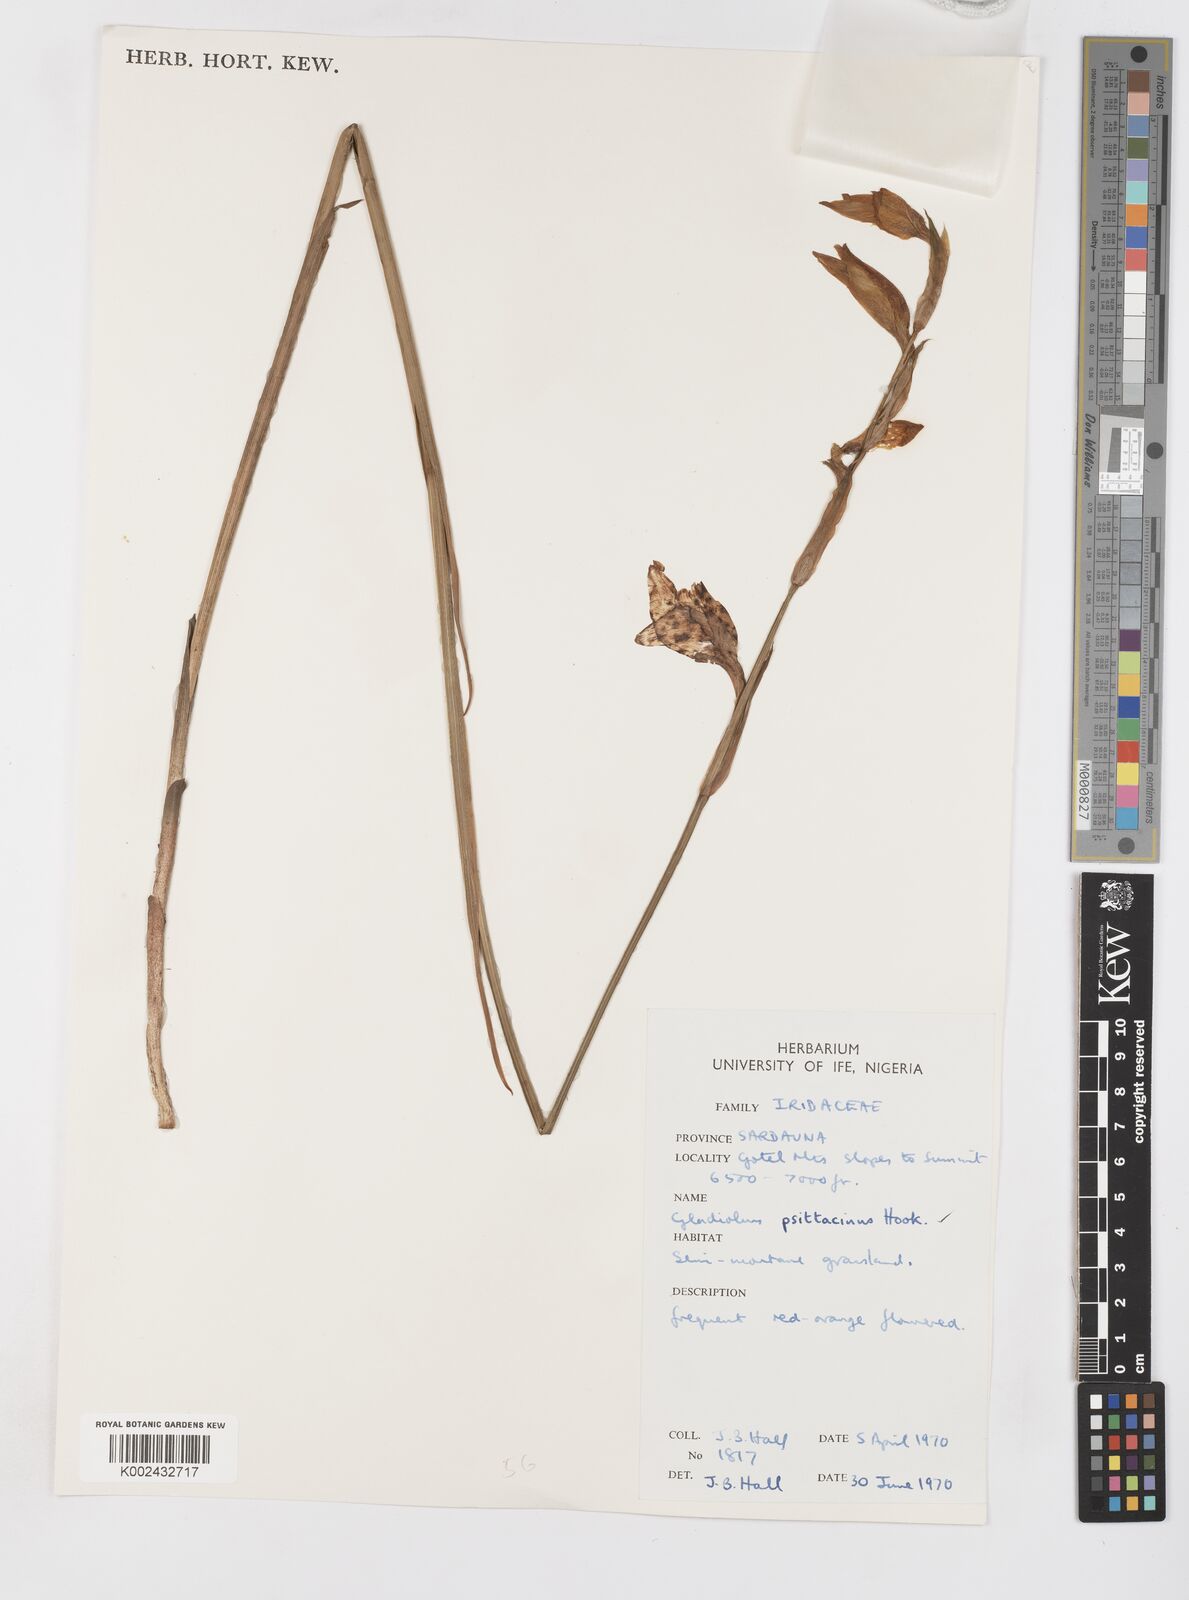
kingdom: Plantae
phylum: Tracheophyta
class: Liliopsida
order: Asparagales
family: Iridaceae
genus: Gladiolus
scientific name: Gladiolus dalenii
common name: Cornflag
